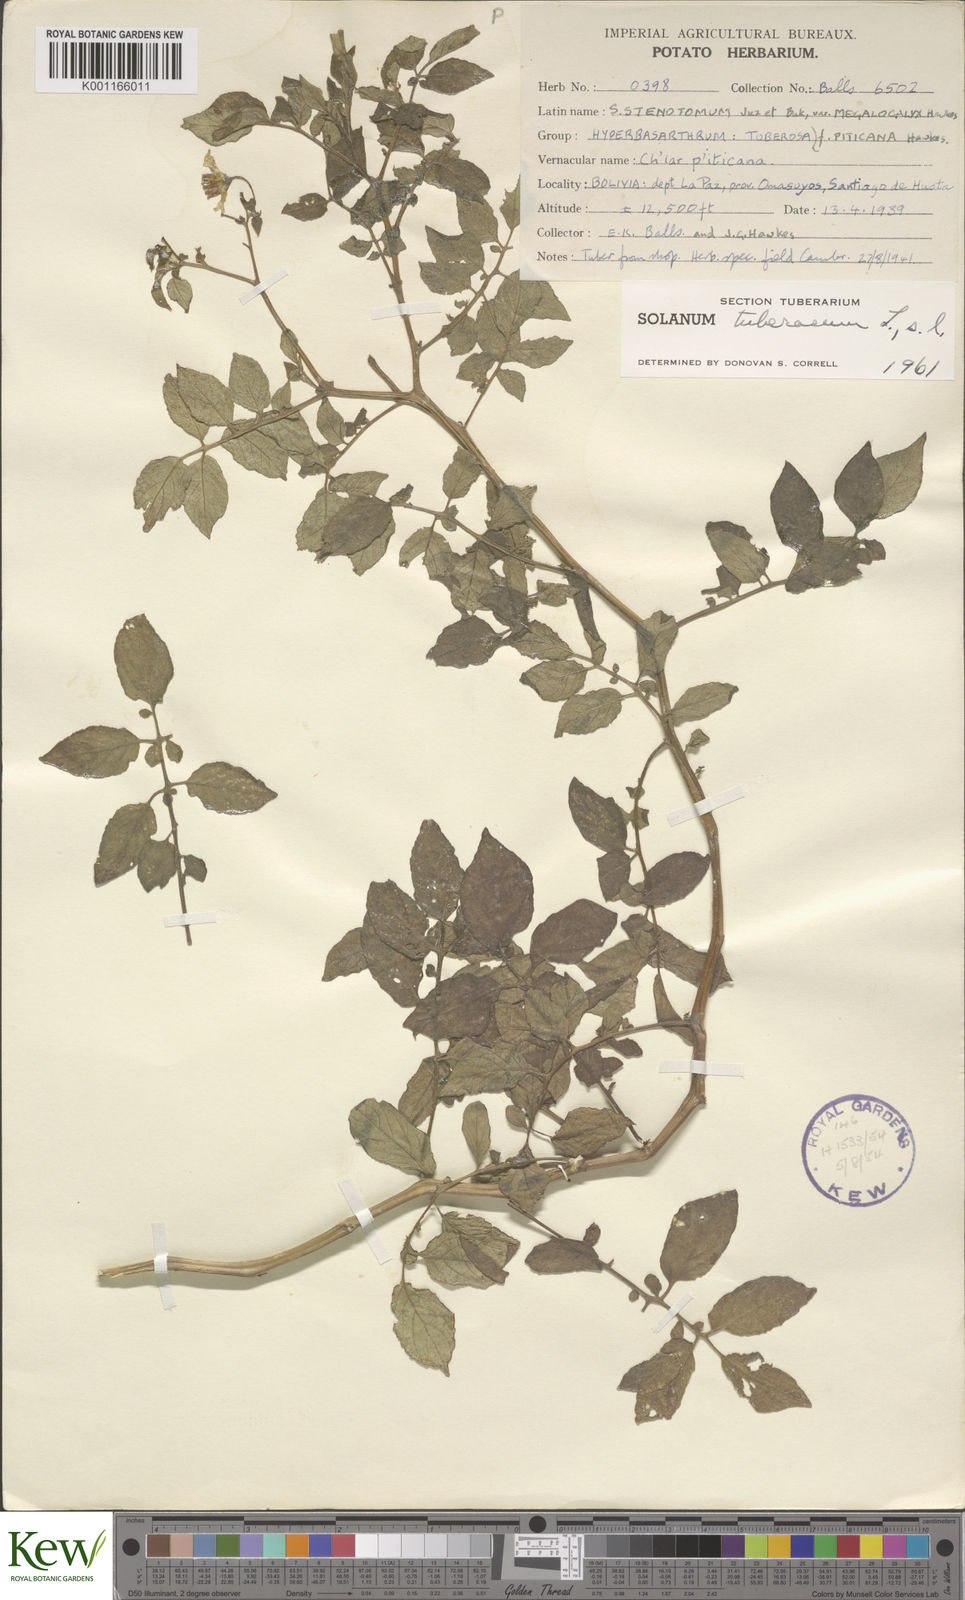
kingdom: Plantae
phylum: Tracheophyta
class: Magnoliopsida
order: Solanales
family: Solanaceae
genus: Solanum
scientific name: Solanum tuberosum
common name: Potato
